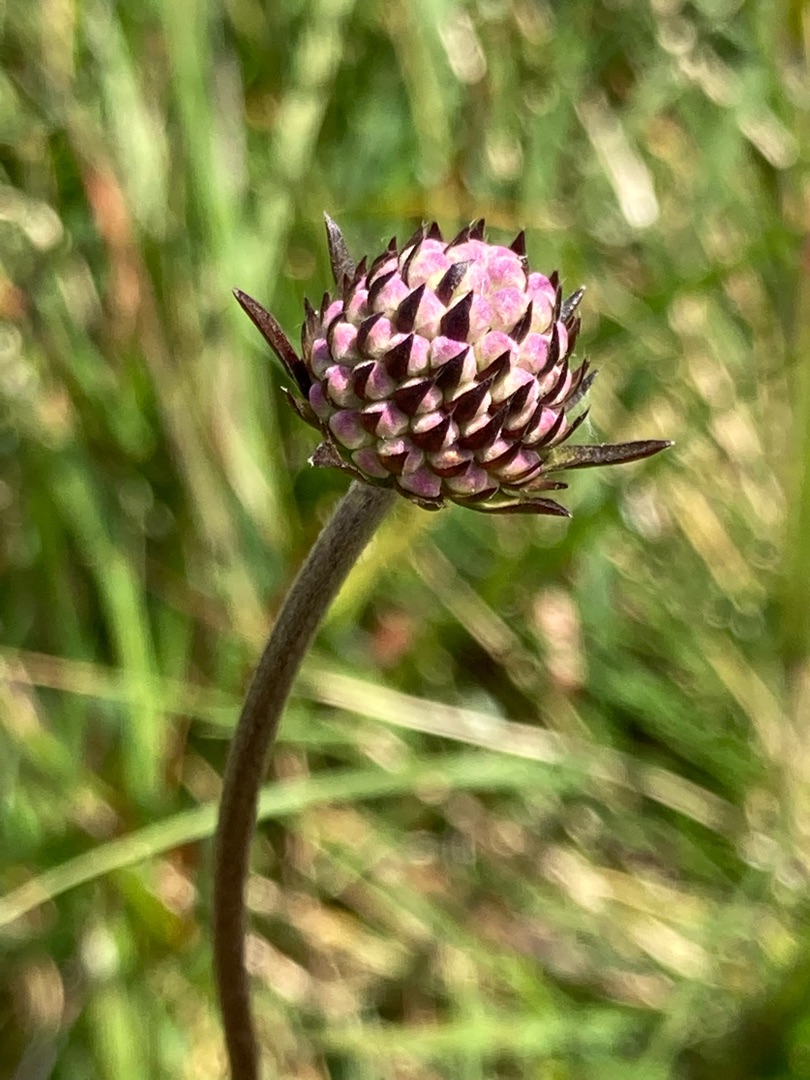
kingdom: Plantae
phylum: Tracheophyta
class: Magnoliopsida
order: Dipsacales
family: Caprifoliaceae
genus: Succisa
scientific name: Succisa pratensis
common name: Djævelsbid
